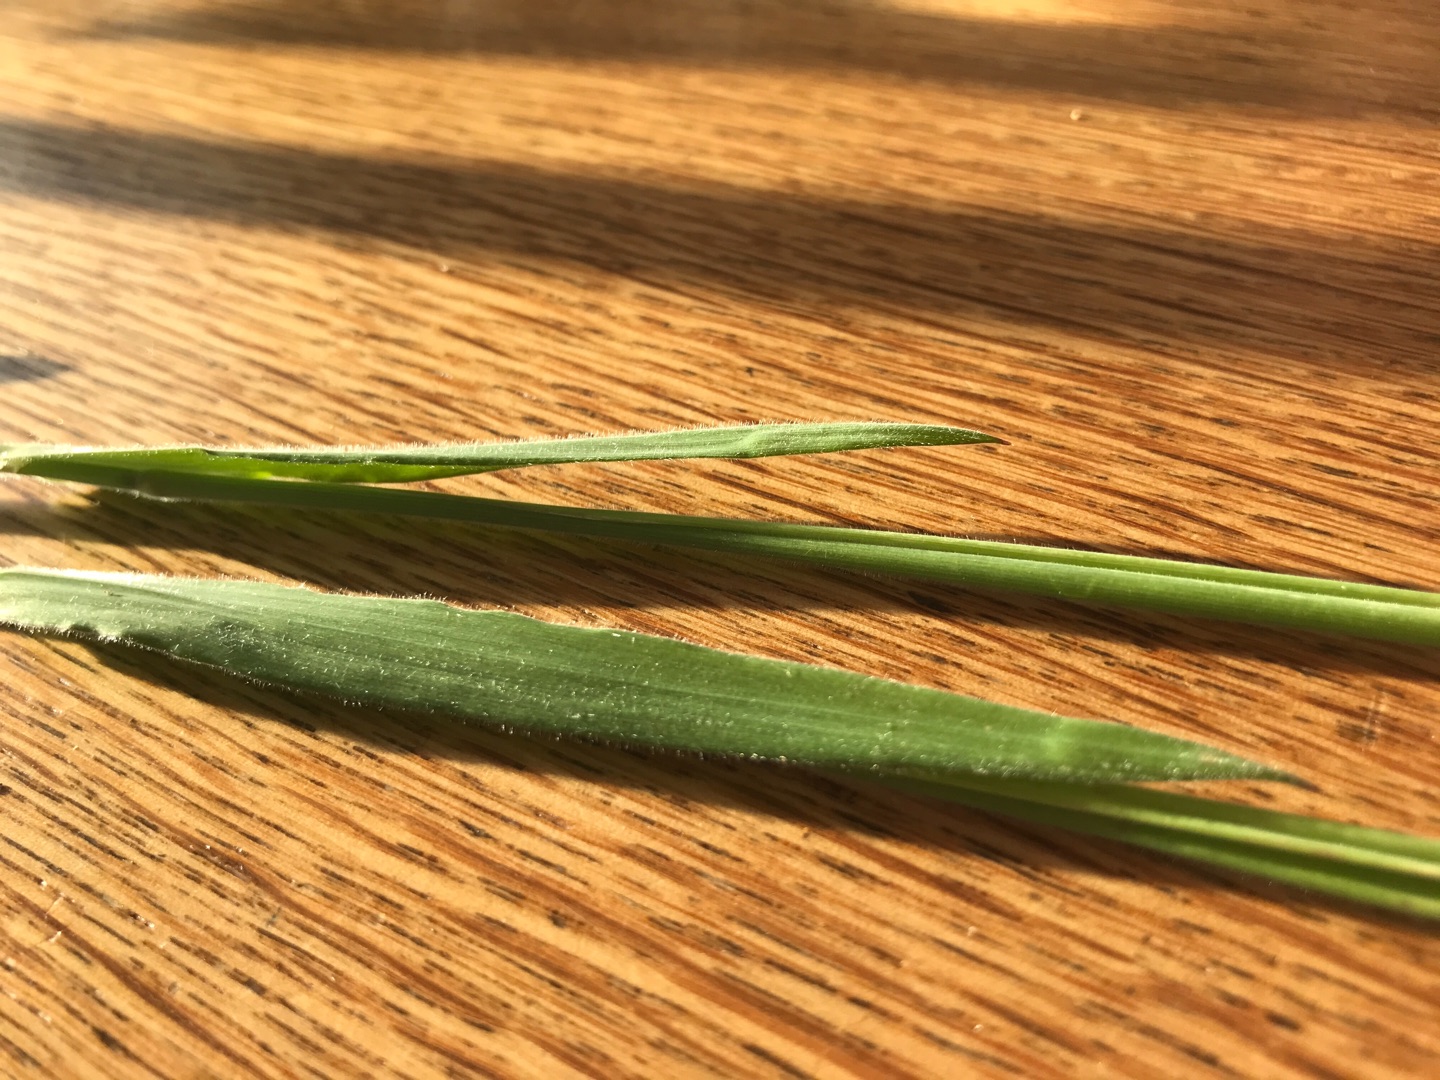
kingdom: Plantae
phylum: Tracheophyta
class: Liliopsida
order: Poales
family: Poaceae
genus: Holcus
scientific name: Holcus lanatus
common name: Fløjlsgræs
